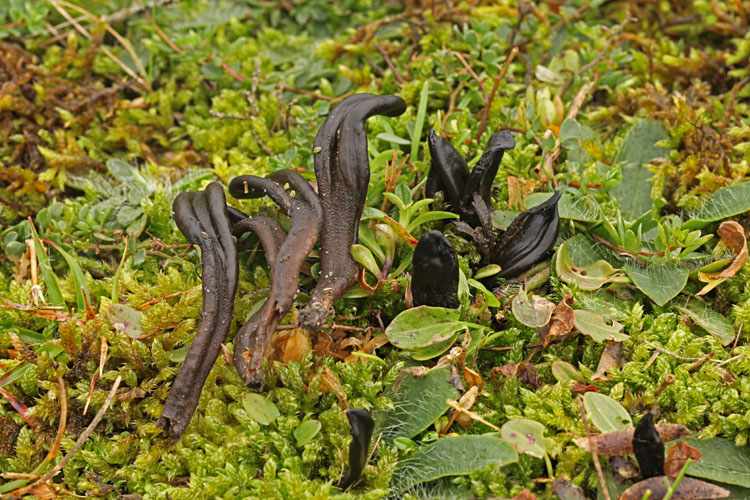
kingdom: Fungi
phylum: Ascomycota
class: Geoglossomycetes
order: Geoglossales
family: Geoglossaceae
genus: Hemileucoglossum
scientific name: Hemileucoglossum elongatum
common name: småsporet jordtunge
